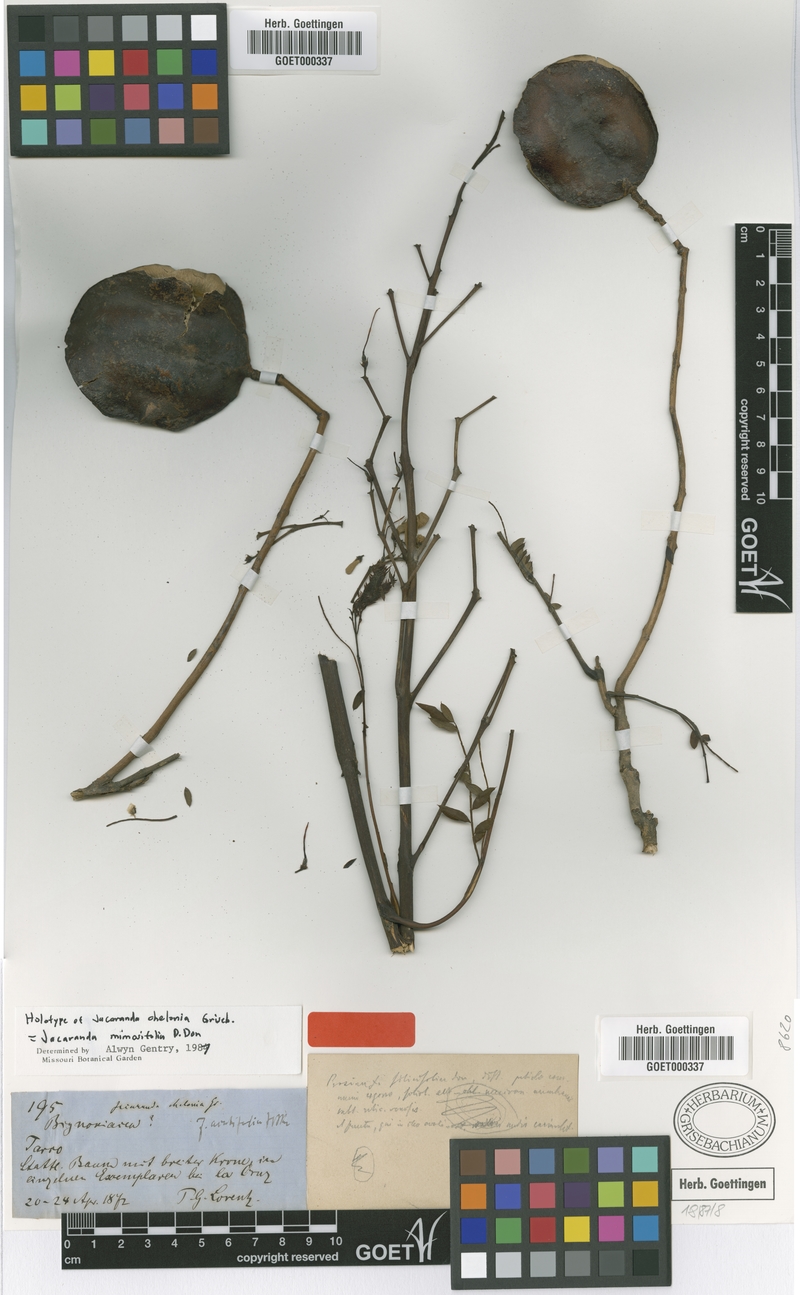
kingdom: Plantae
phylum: Tracheophyta
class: Magnoliopsida
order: Lamiales
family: Bignoniaceae
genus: Jacaranda
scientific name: Jacaranda mimosifolia
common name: Black poui
